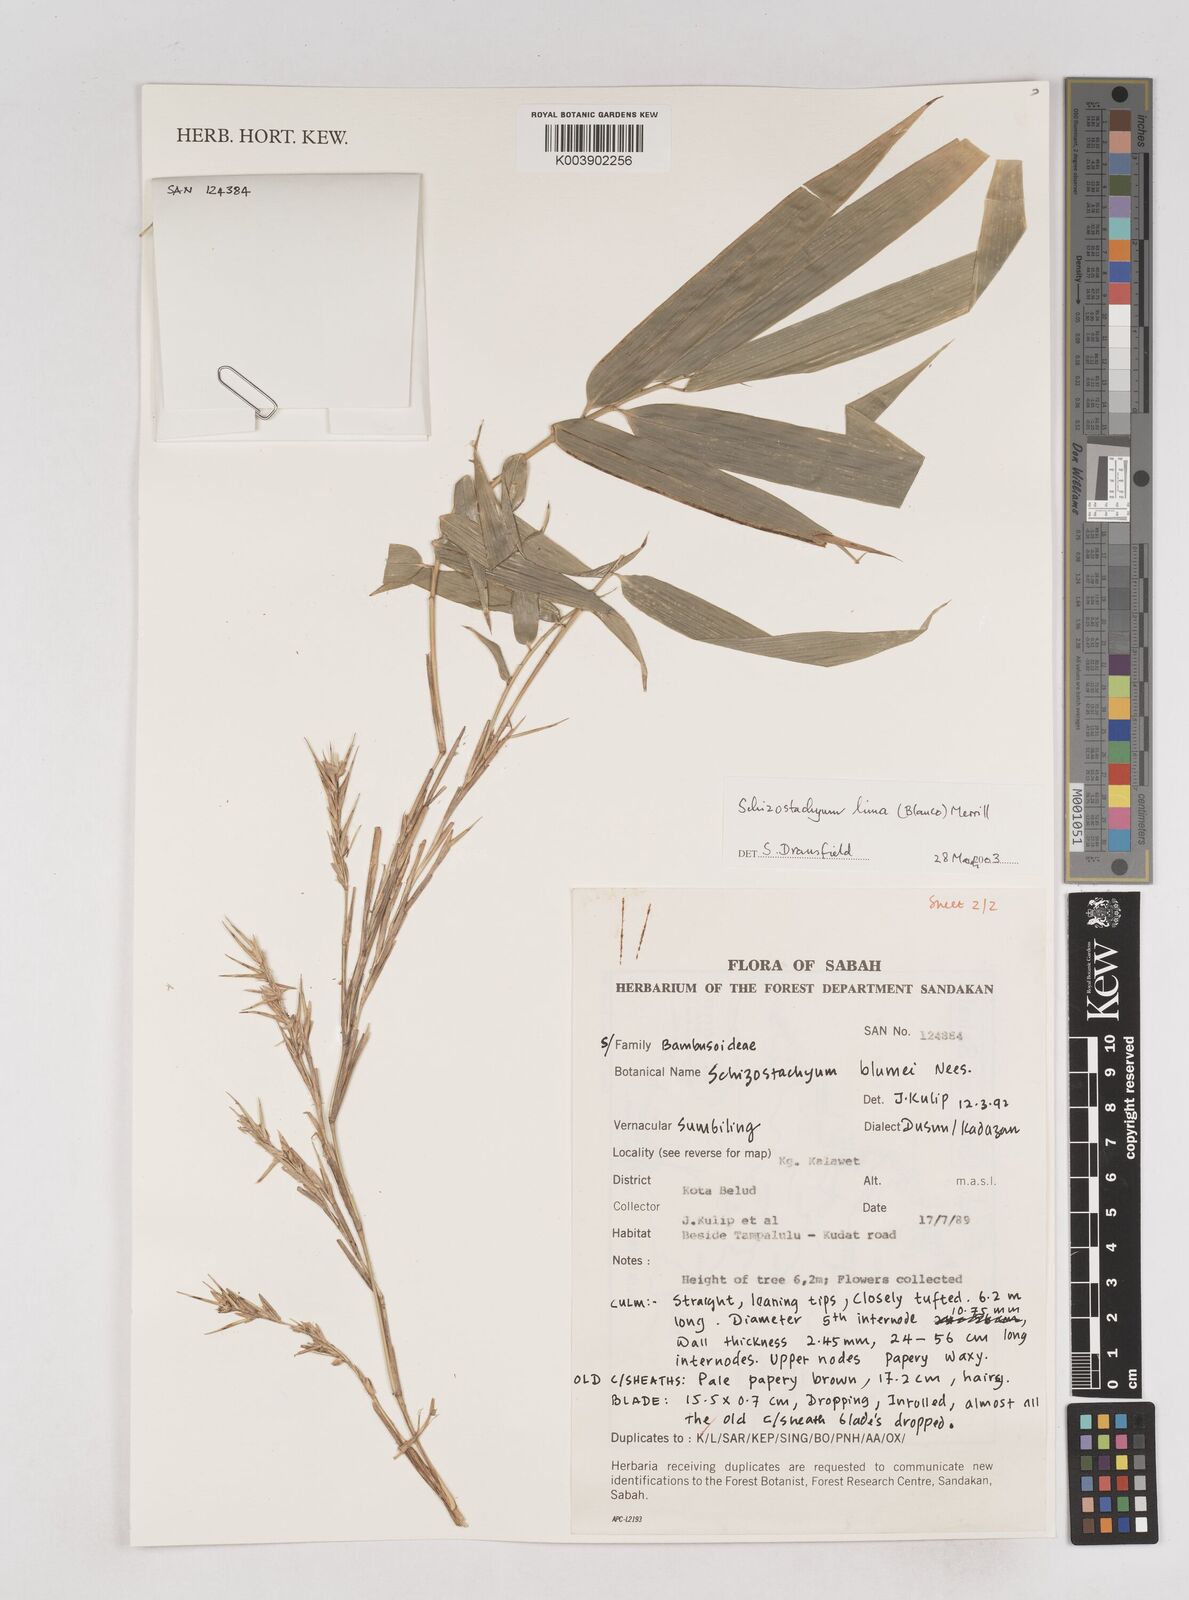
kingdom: Plantae
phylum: Tracheophyta
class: Liliopsida
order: Poales
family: Poaceae
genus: Schizostachyum
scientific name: Schizostachyum lima
